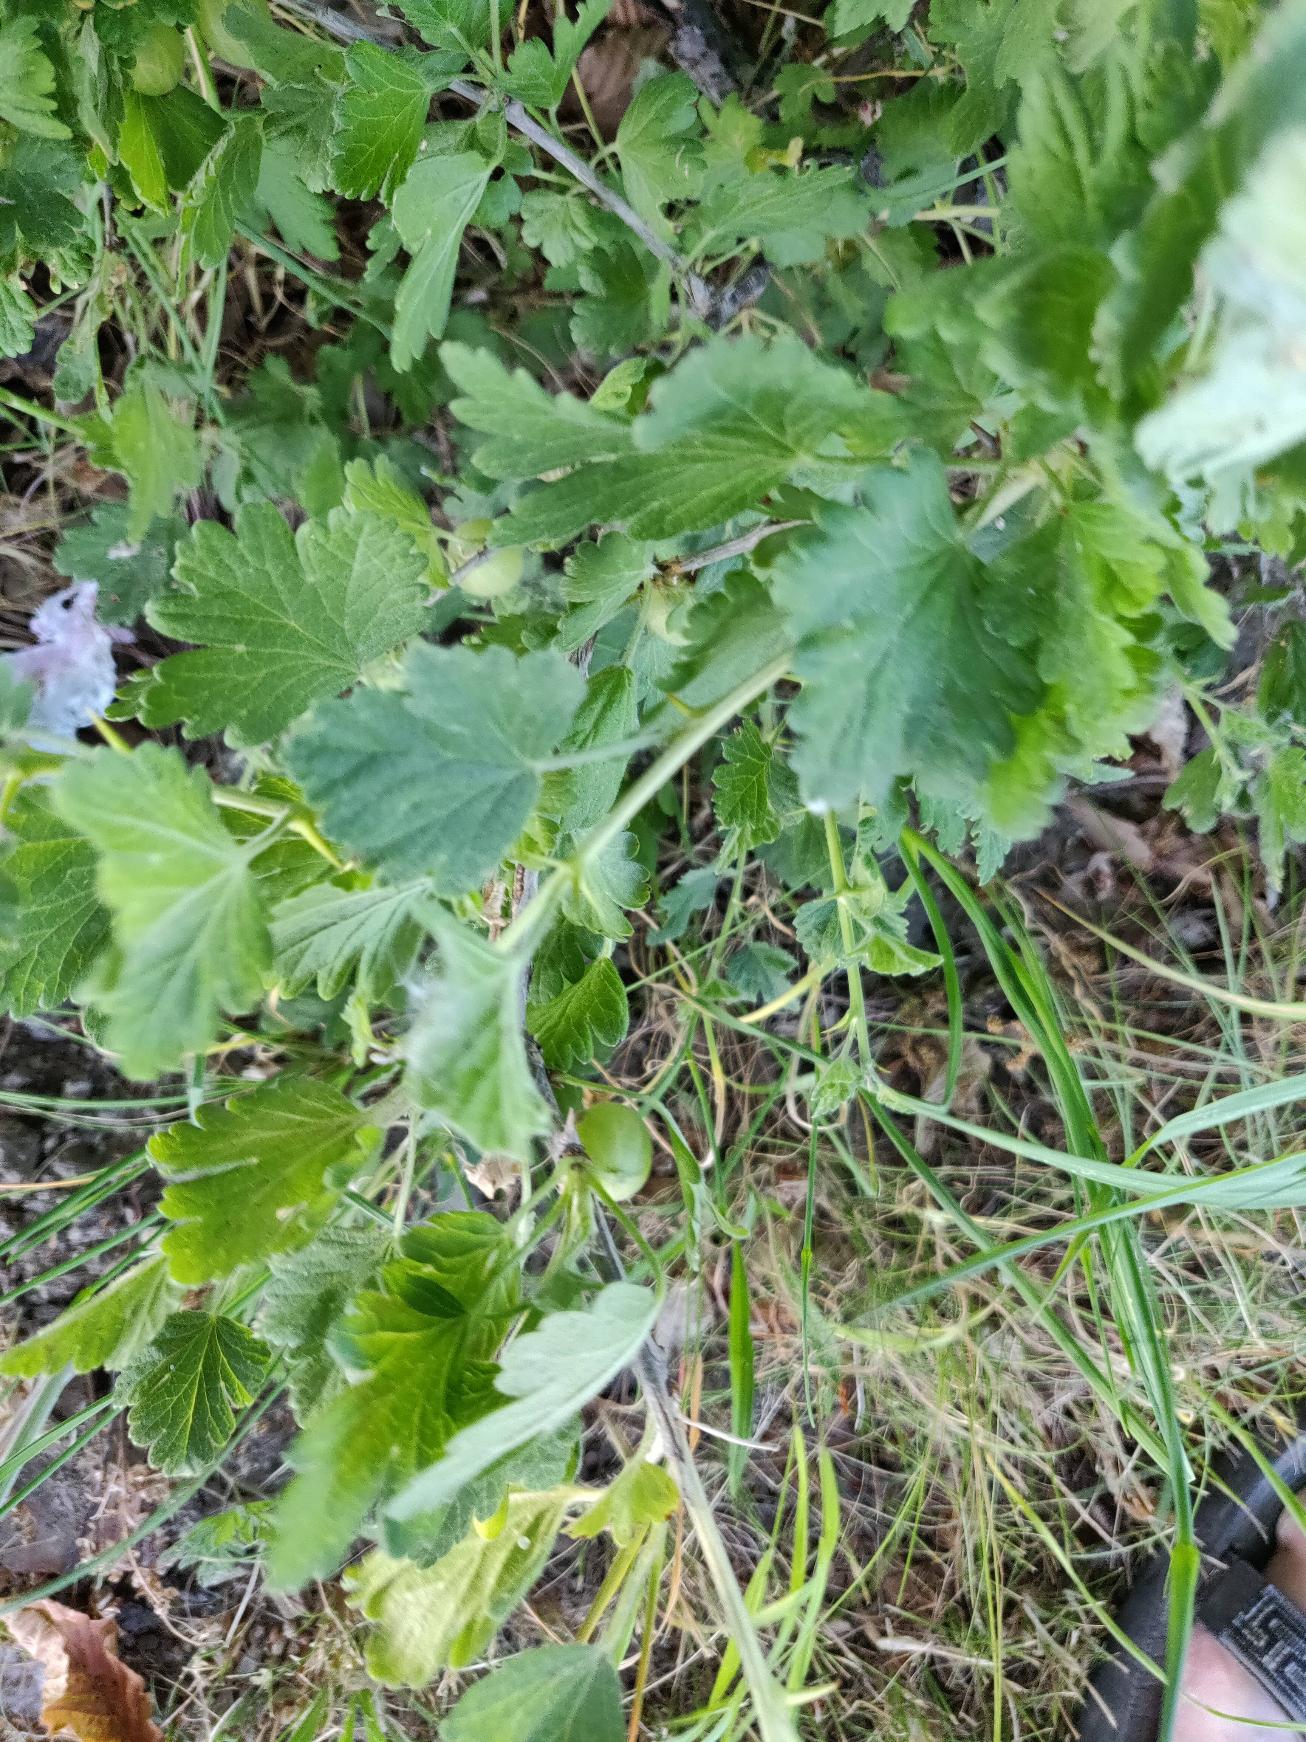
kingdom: Plantae
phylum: Tracheophyta
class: Magnoliopsida
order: Saxifragales
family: Grossulariaceae
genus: Ribes
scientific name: Ribes uva-crispa
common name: Stikkelsbær
